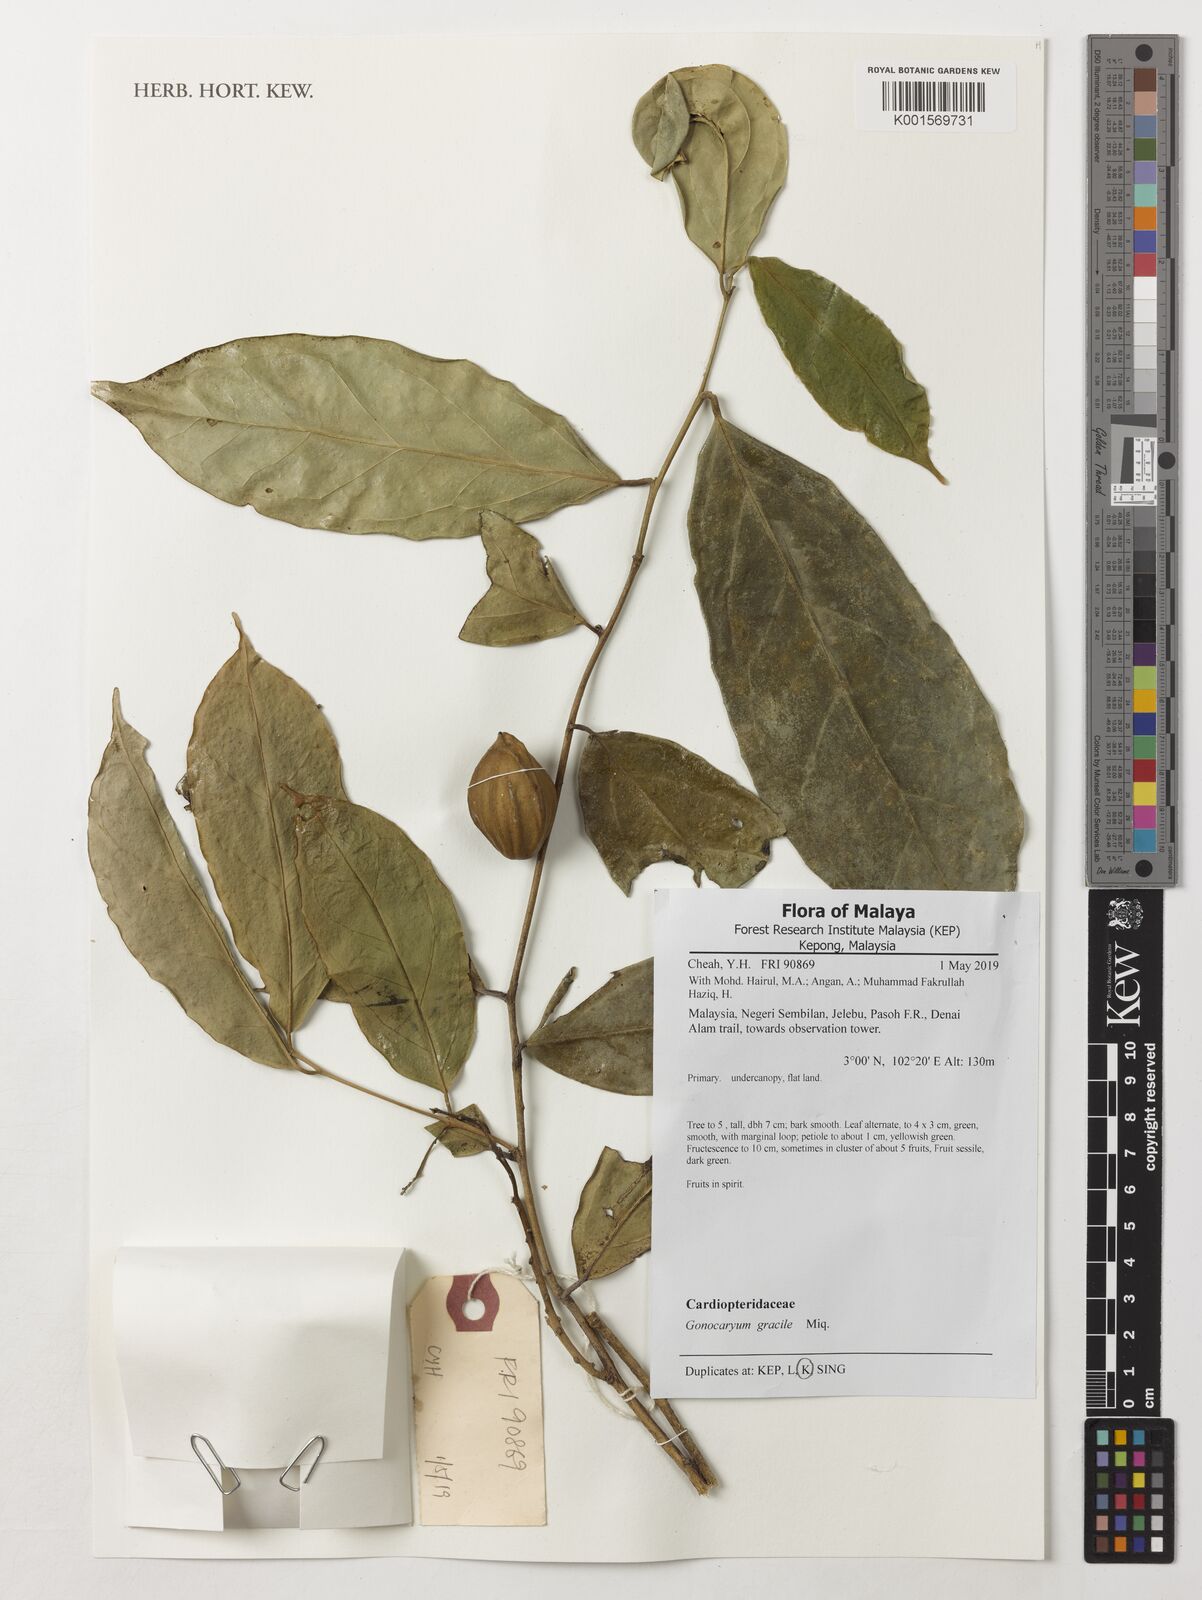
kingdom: Plantae
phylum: Tracheophyta
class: Magnoliopsida
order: Cardiopteridales
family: Cardiopteridaceae
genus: Gonocaryum
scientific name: Gonocaryum gracile
